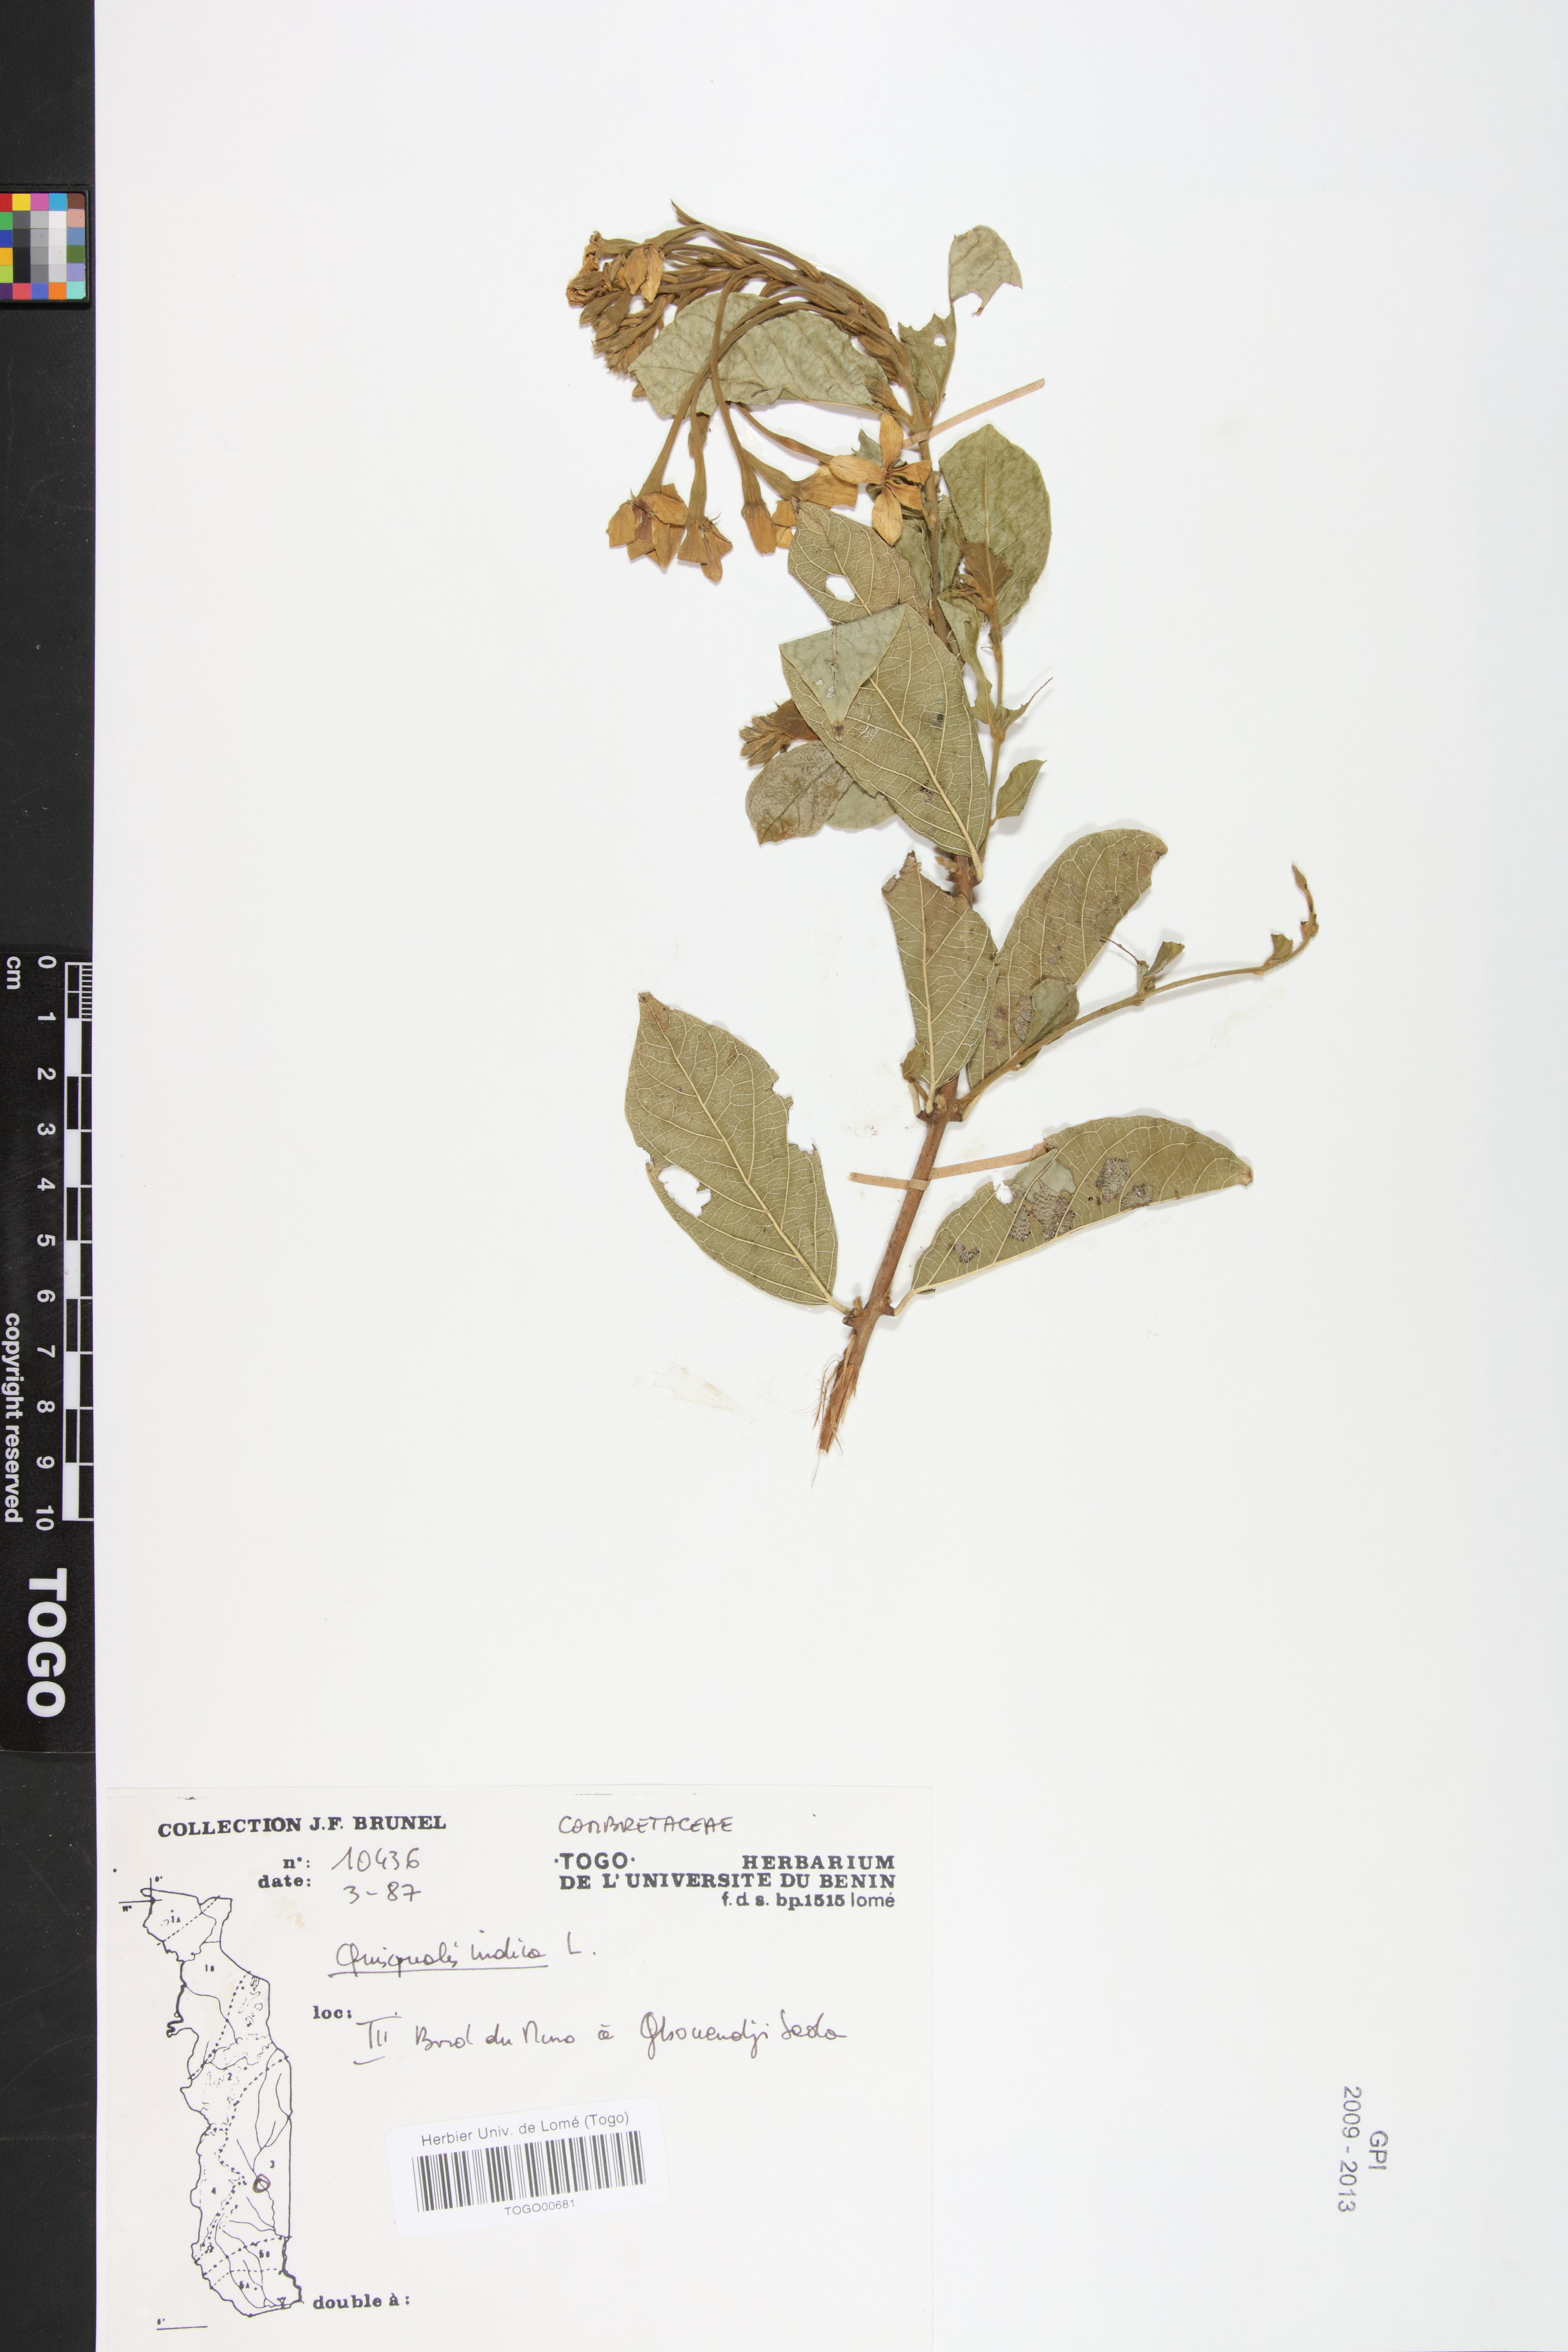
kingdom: Plantae
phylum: Tracheophyta
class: Magnoliopsida
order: Myrtales
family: Combretaceae
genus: Combretum
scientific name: Combretum indicum
